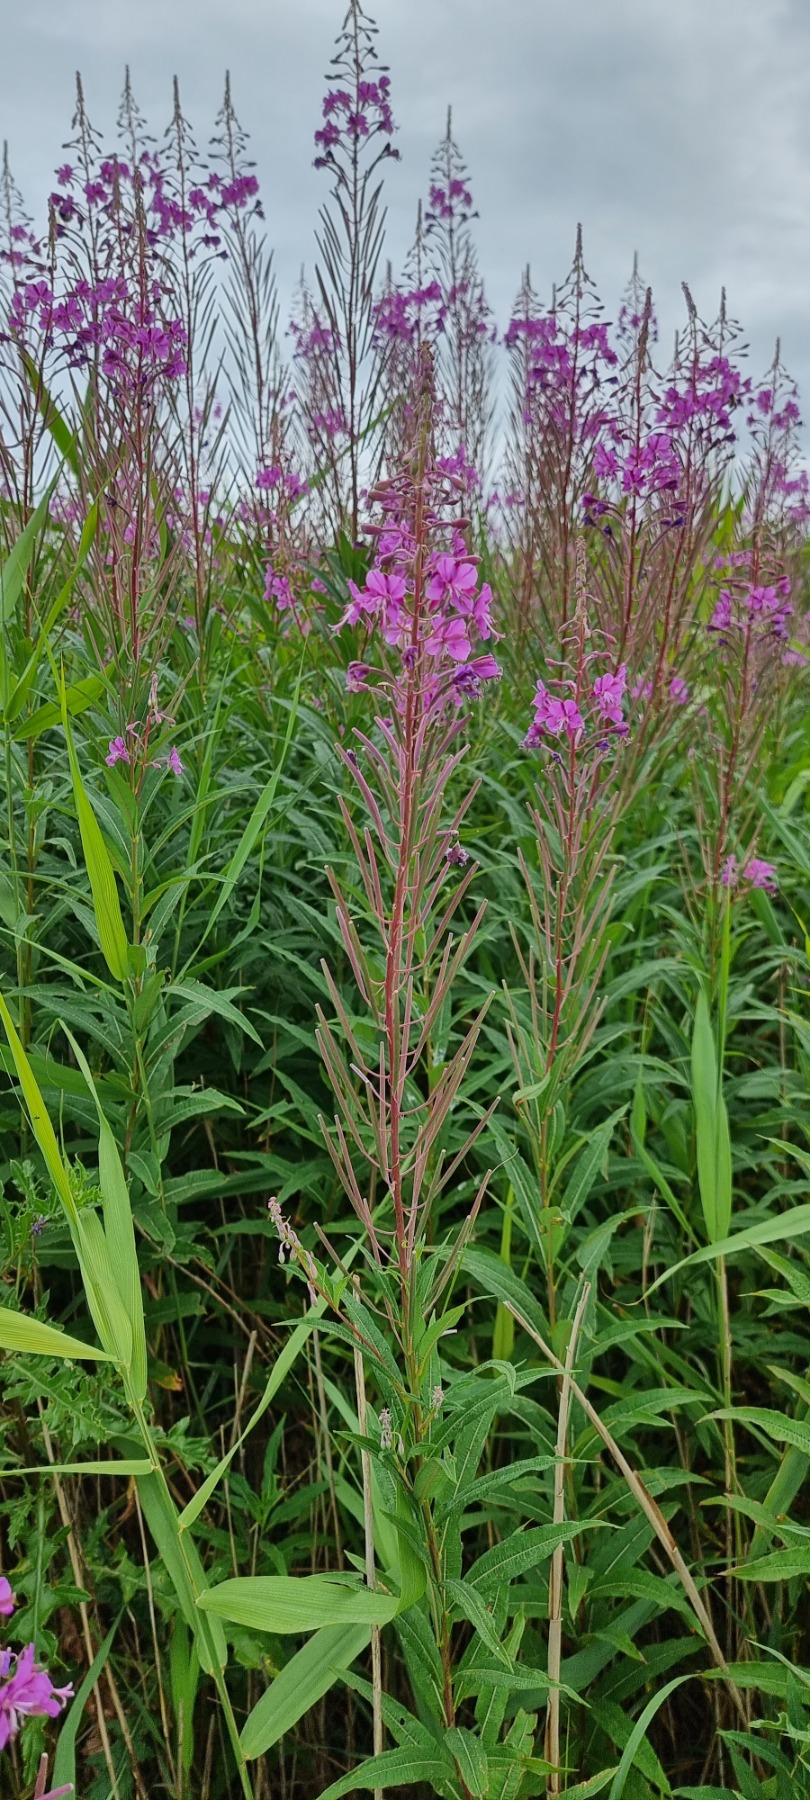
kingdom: Plantae
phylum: Tracheophyta
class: Magnoliopsida
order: Myrtales
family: Onagraceae
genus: Chamaenerion
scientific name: Chamaenerion angustifolium
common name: Gederams
